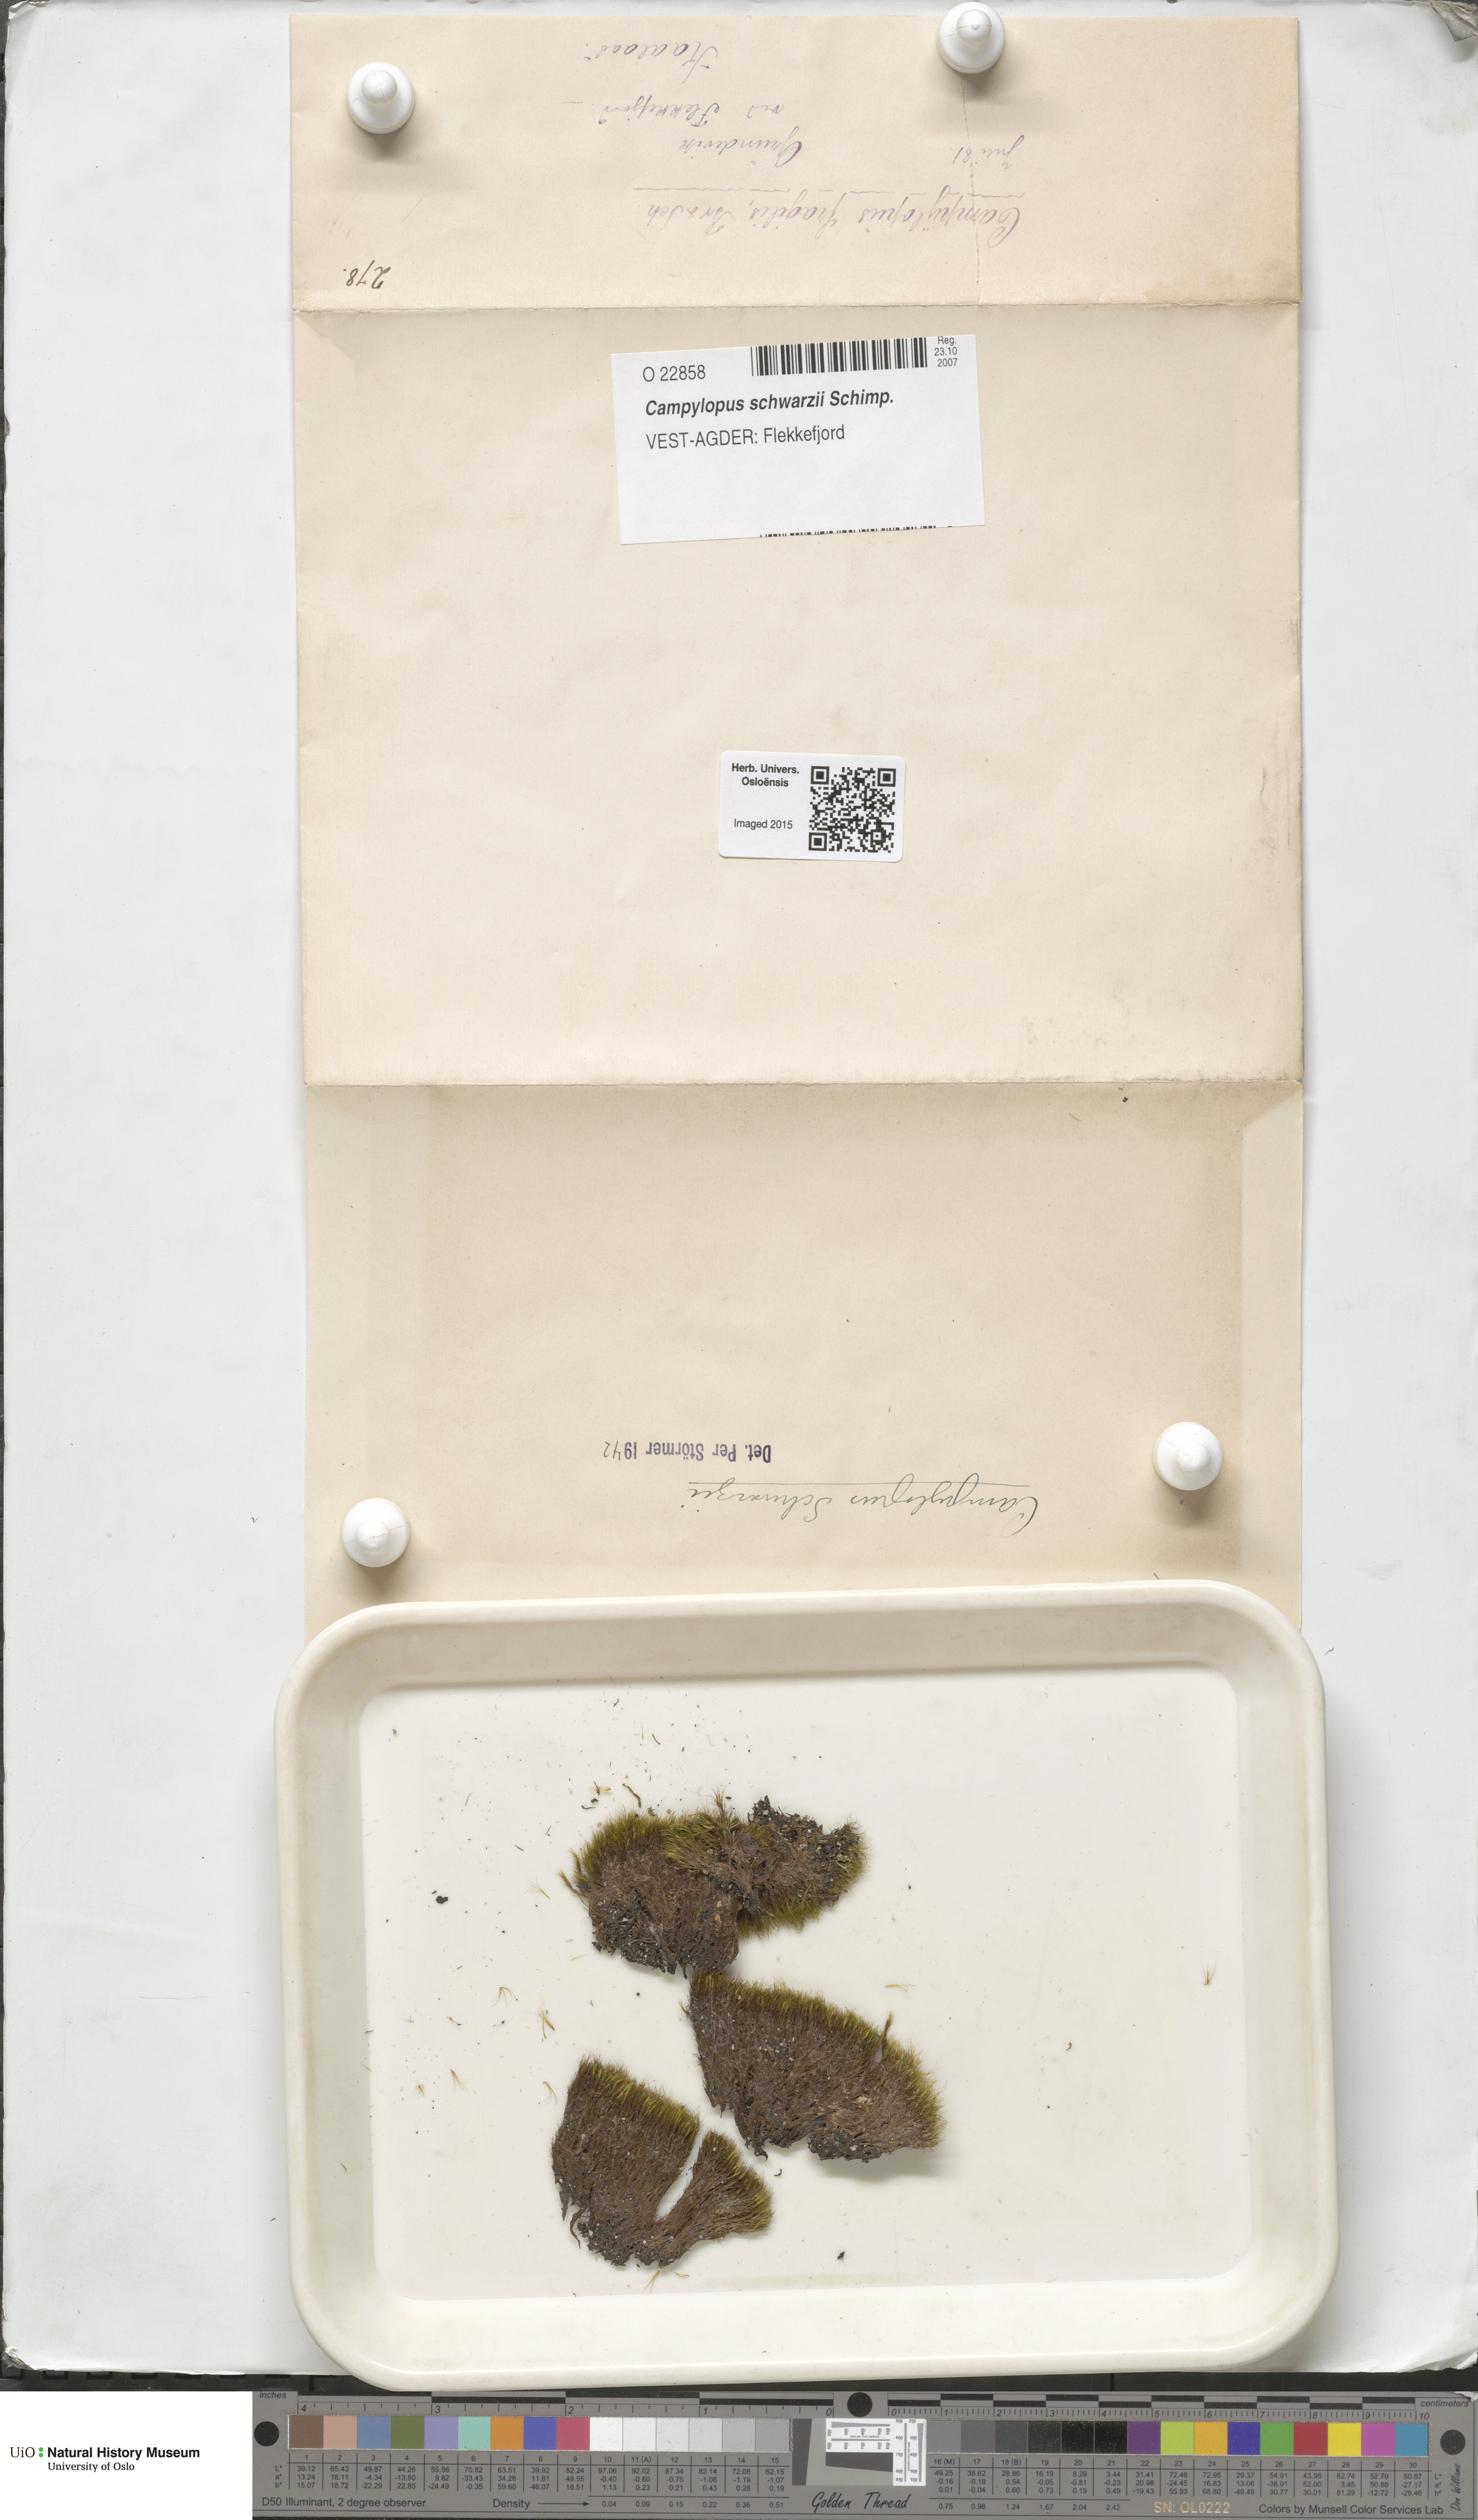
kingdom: Plantae
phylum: Bryophyta
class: Bryopsida
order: Dicranales
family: Leucobryaceae
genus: Campylopus
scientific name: Campylopus gracilis
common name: Schwarz's swan-neck moss
